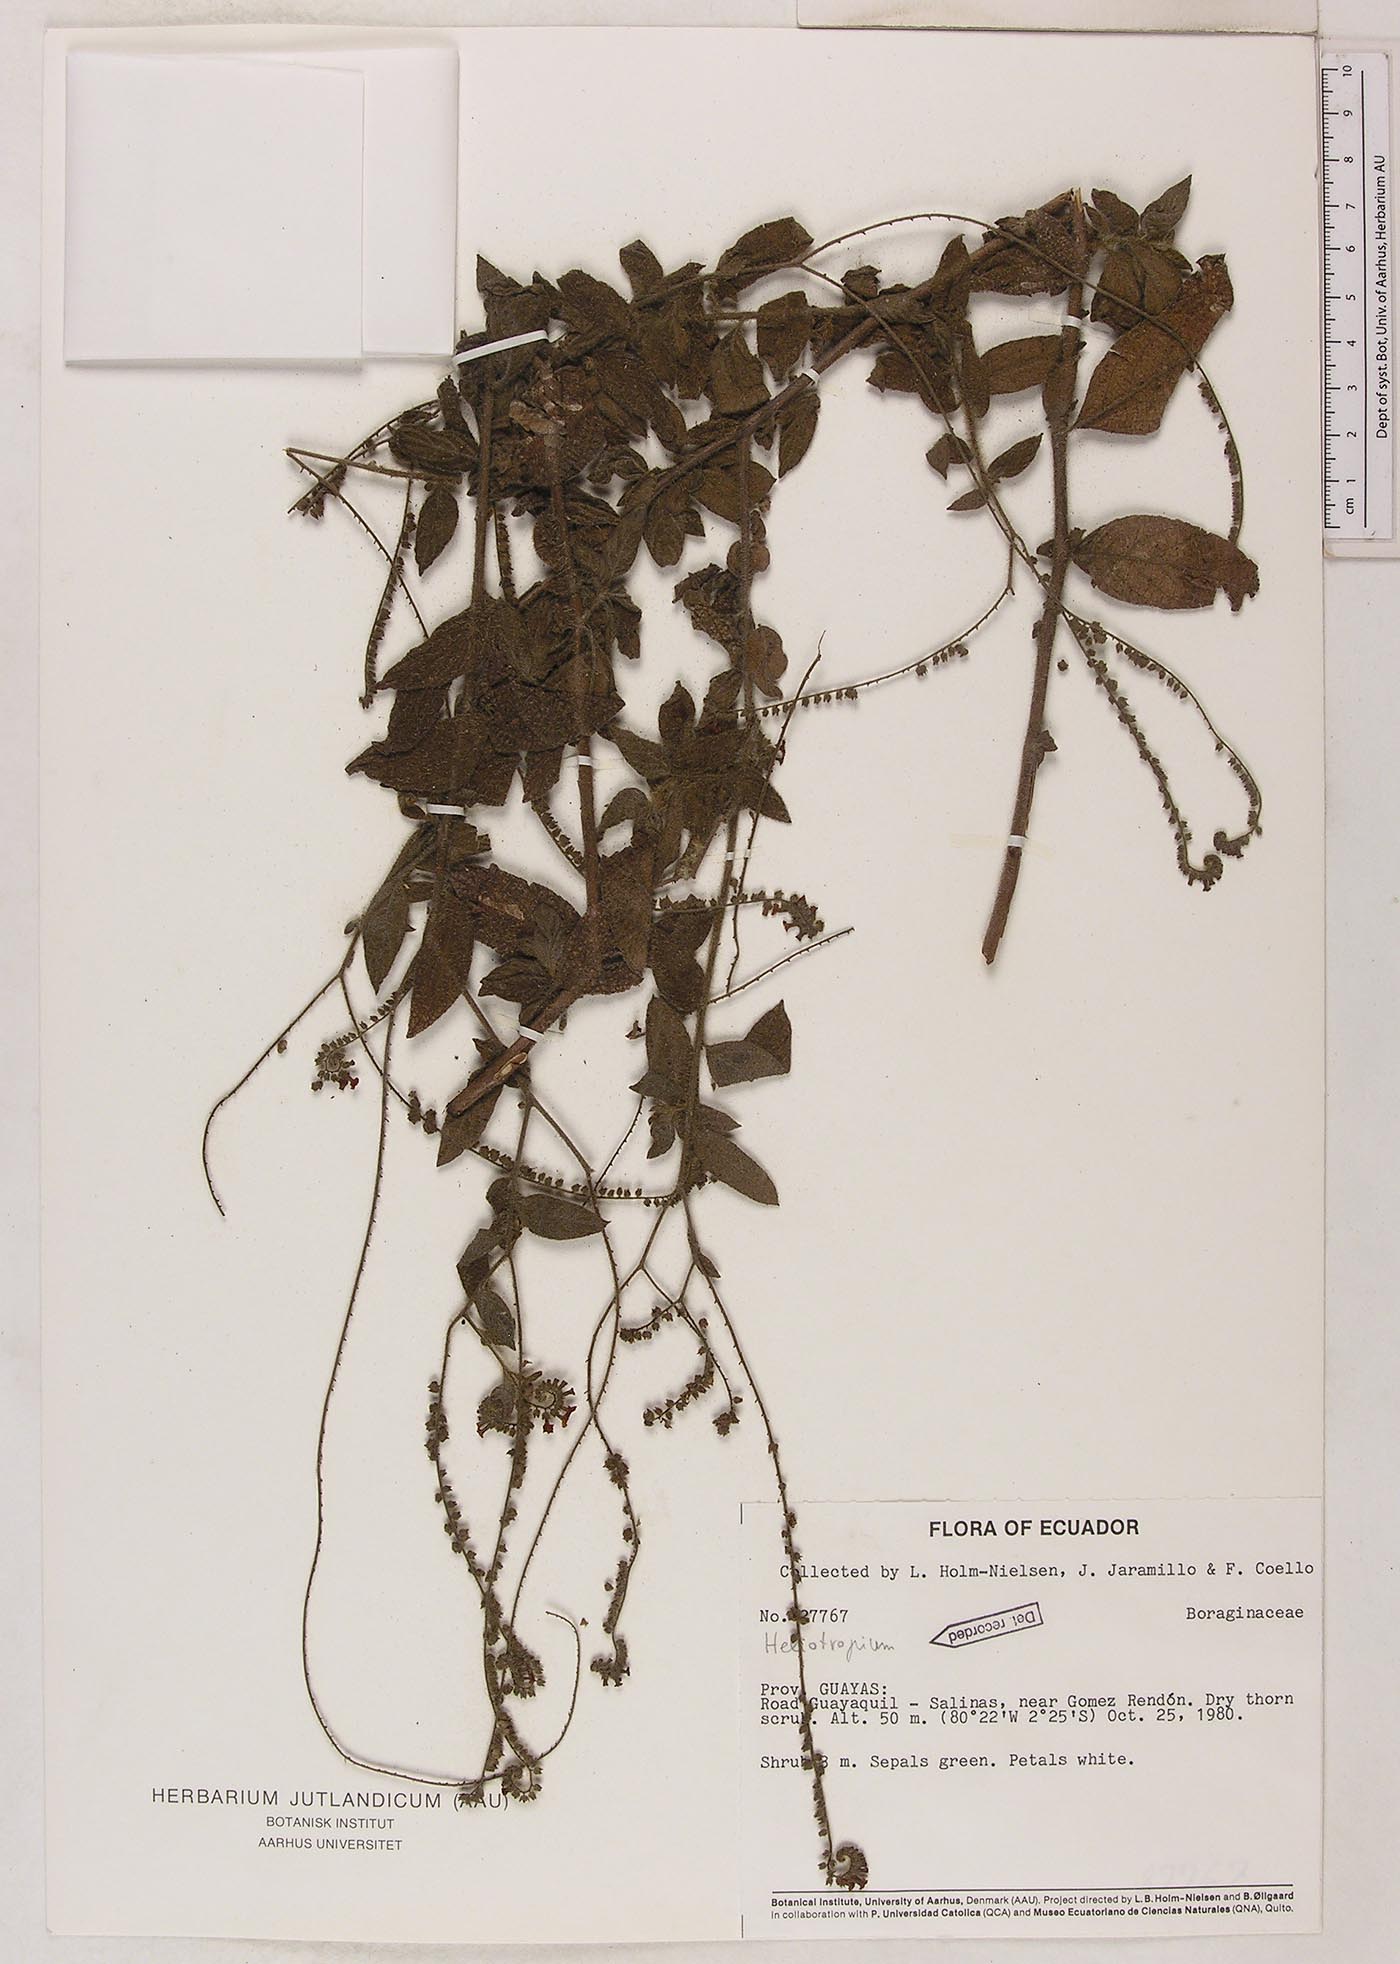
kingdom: Plantae
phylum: Tracheophyta
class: Magnoliopsida
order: Boraginales
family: Heliotropiaceae
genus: Heliotropium
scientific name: Heliotropium rufipilum
